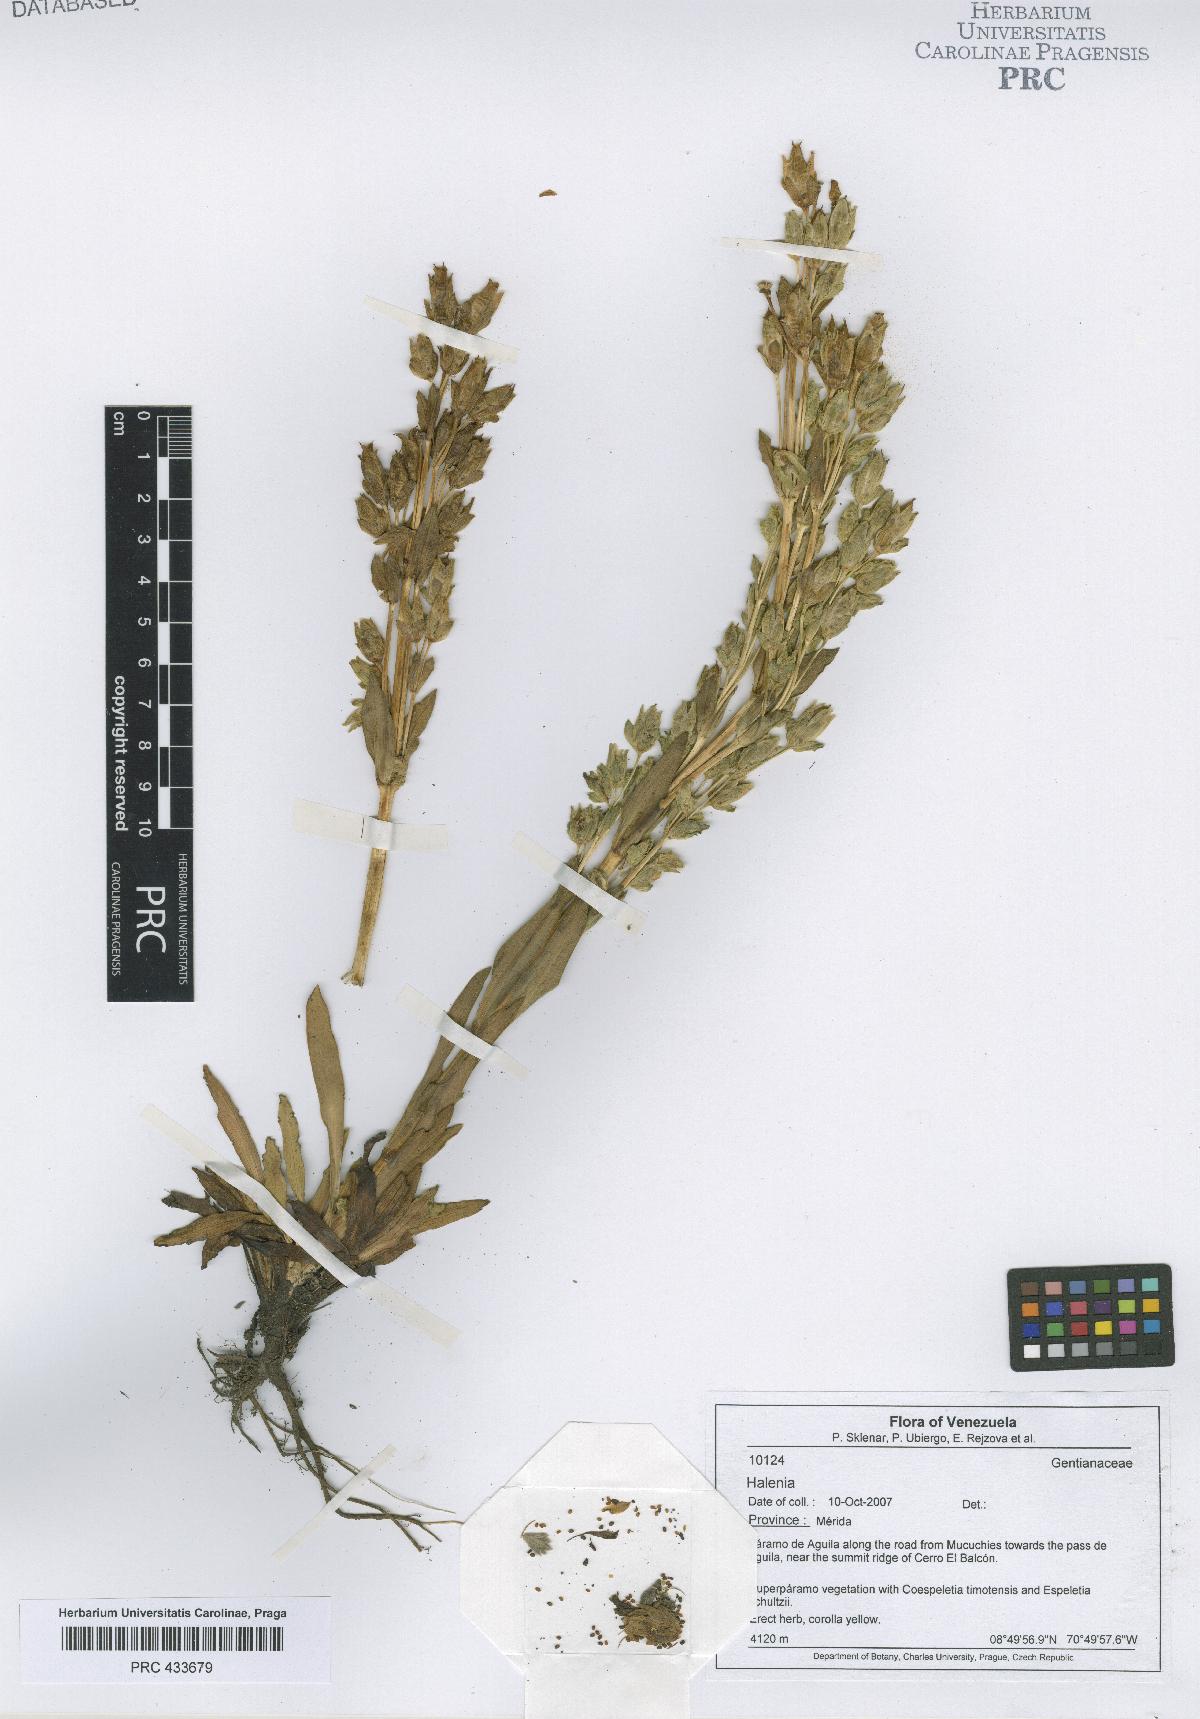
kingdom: Plantae
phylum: Tracheophyta
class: Magnoliopsida
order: Gentianales
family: Gentianaceae
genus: Halenia
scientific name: Halenia
